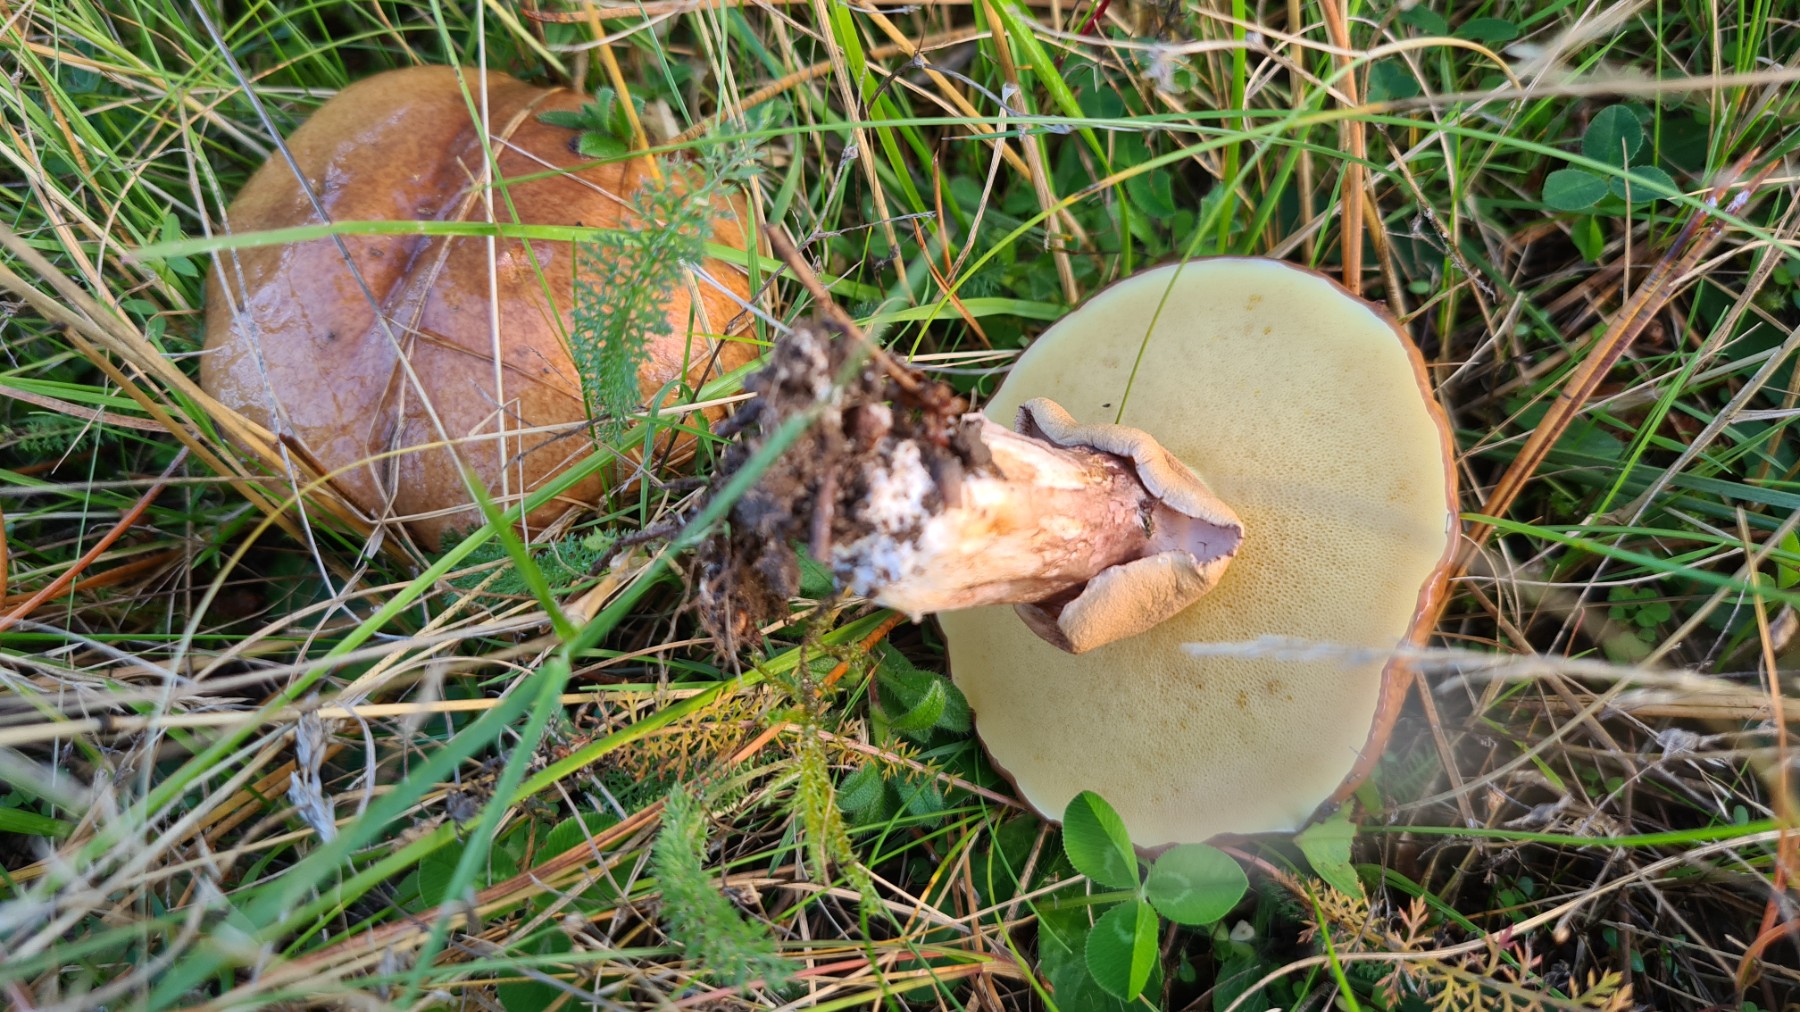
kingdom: Fungi
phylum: Basidiomycota
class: Agaricomycetes
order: Boletales
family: Suillaceae
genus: Suillus
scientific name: Suillus luteus
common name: brungul slimrørhat
